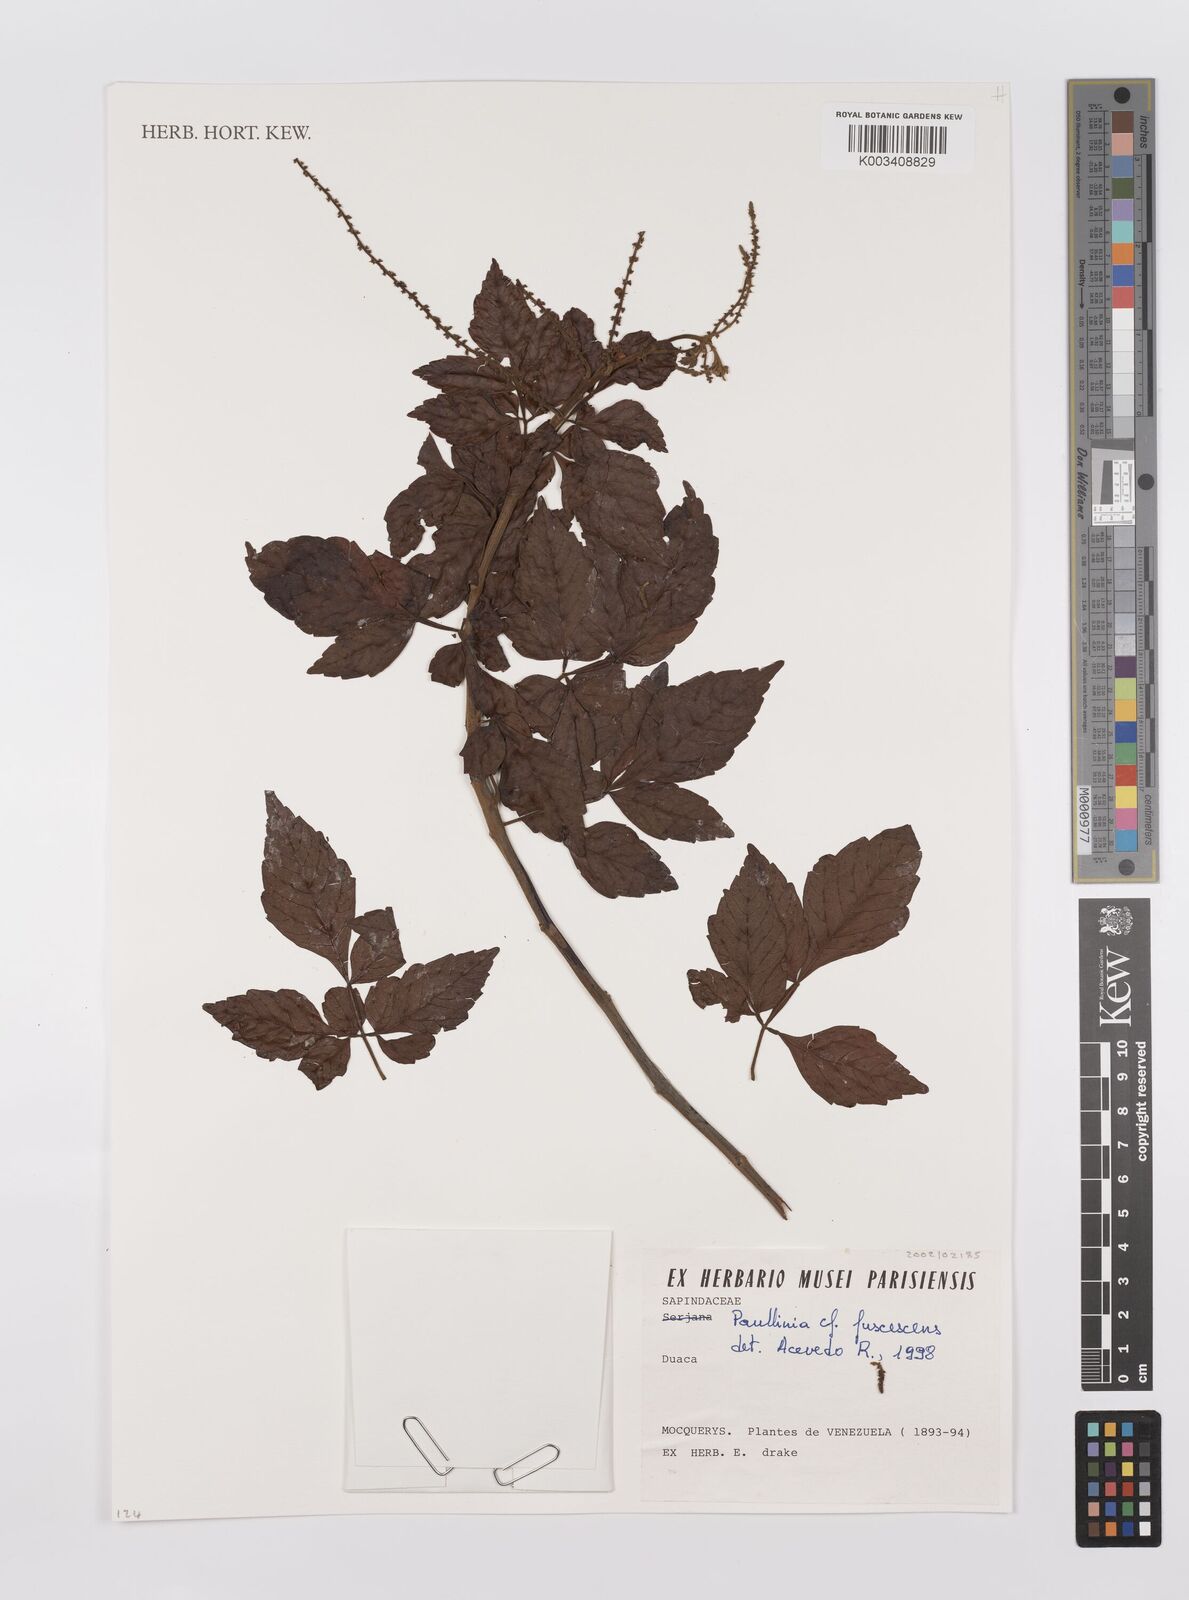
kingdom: Plantae
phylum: Tracheophyta
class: Magnoliopsida
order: Sapindales
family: Sapindaceae
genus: Paullinia
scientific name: Paullinia fuscescens
